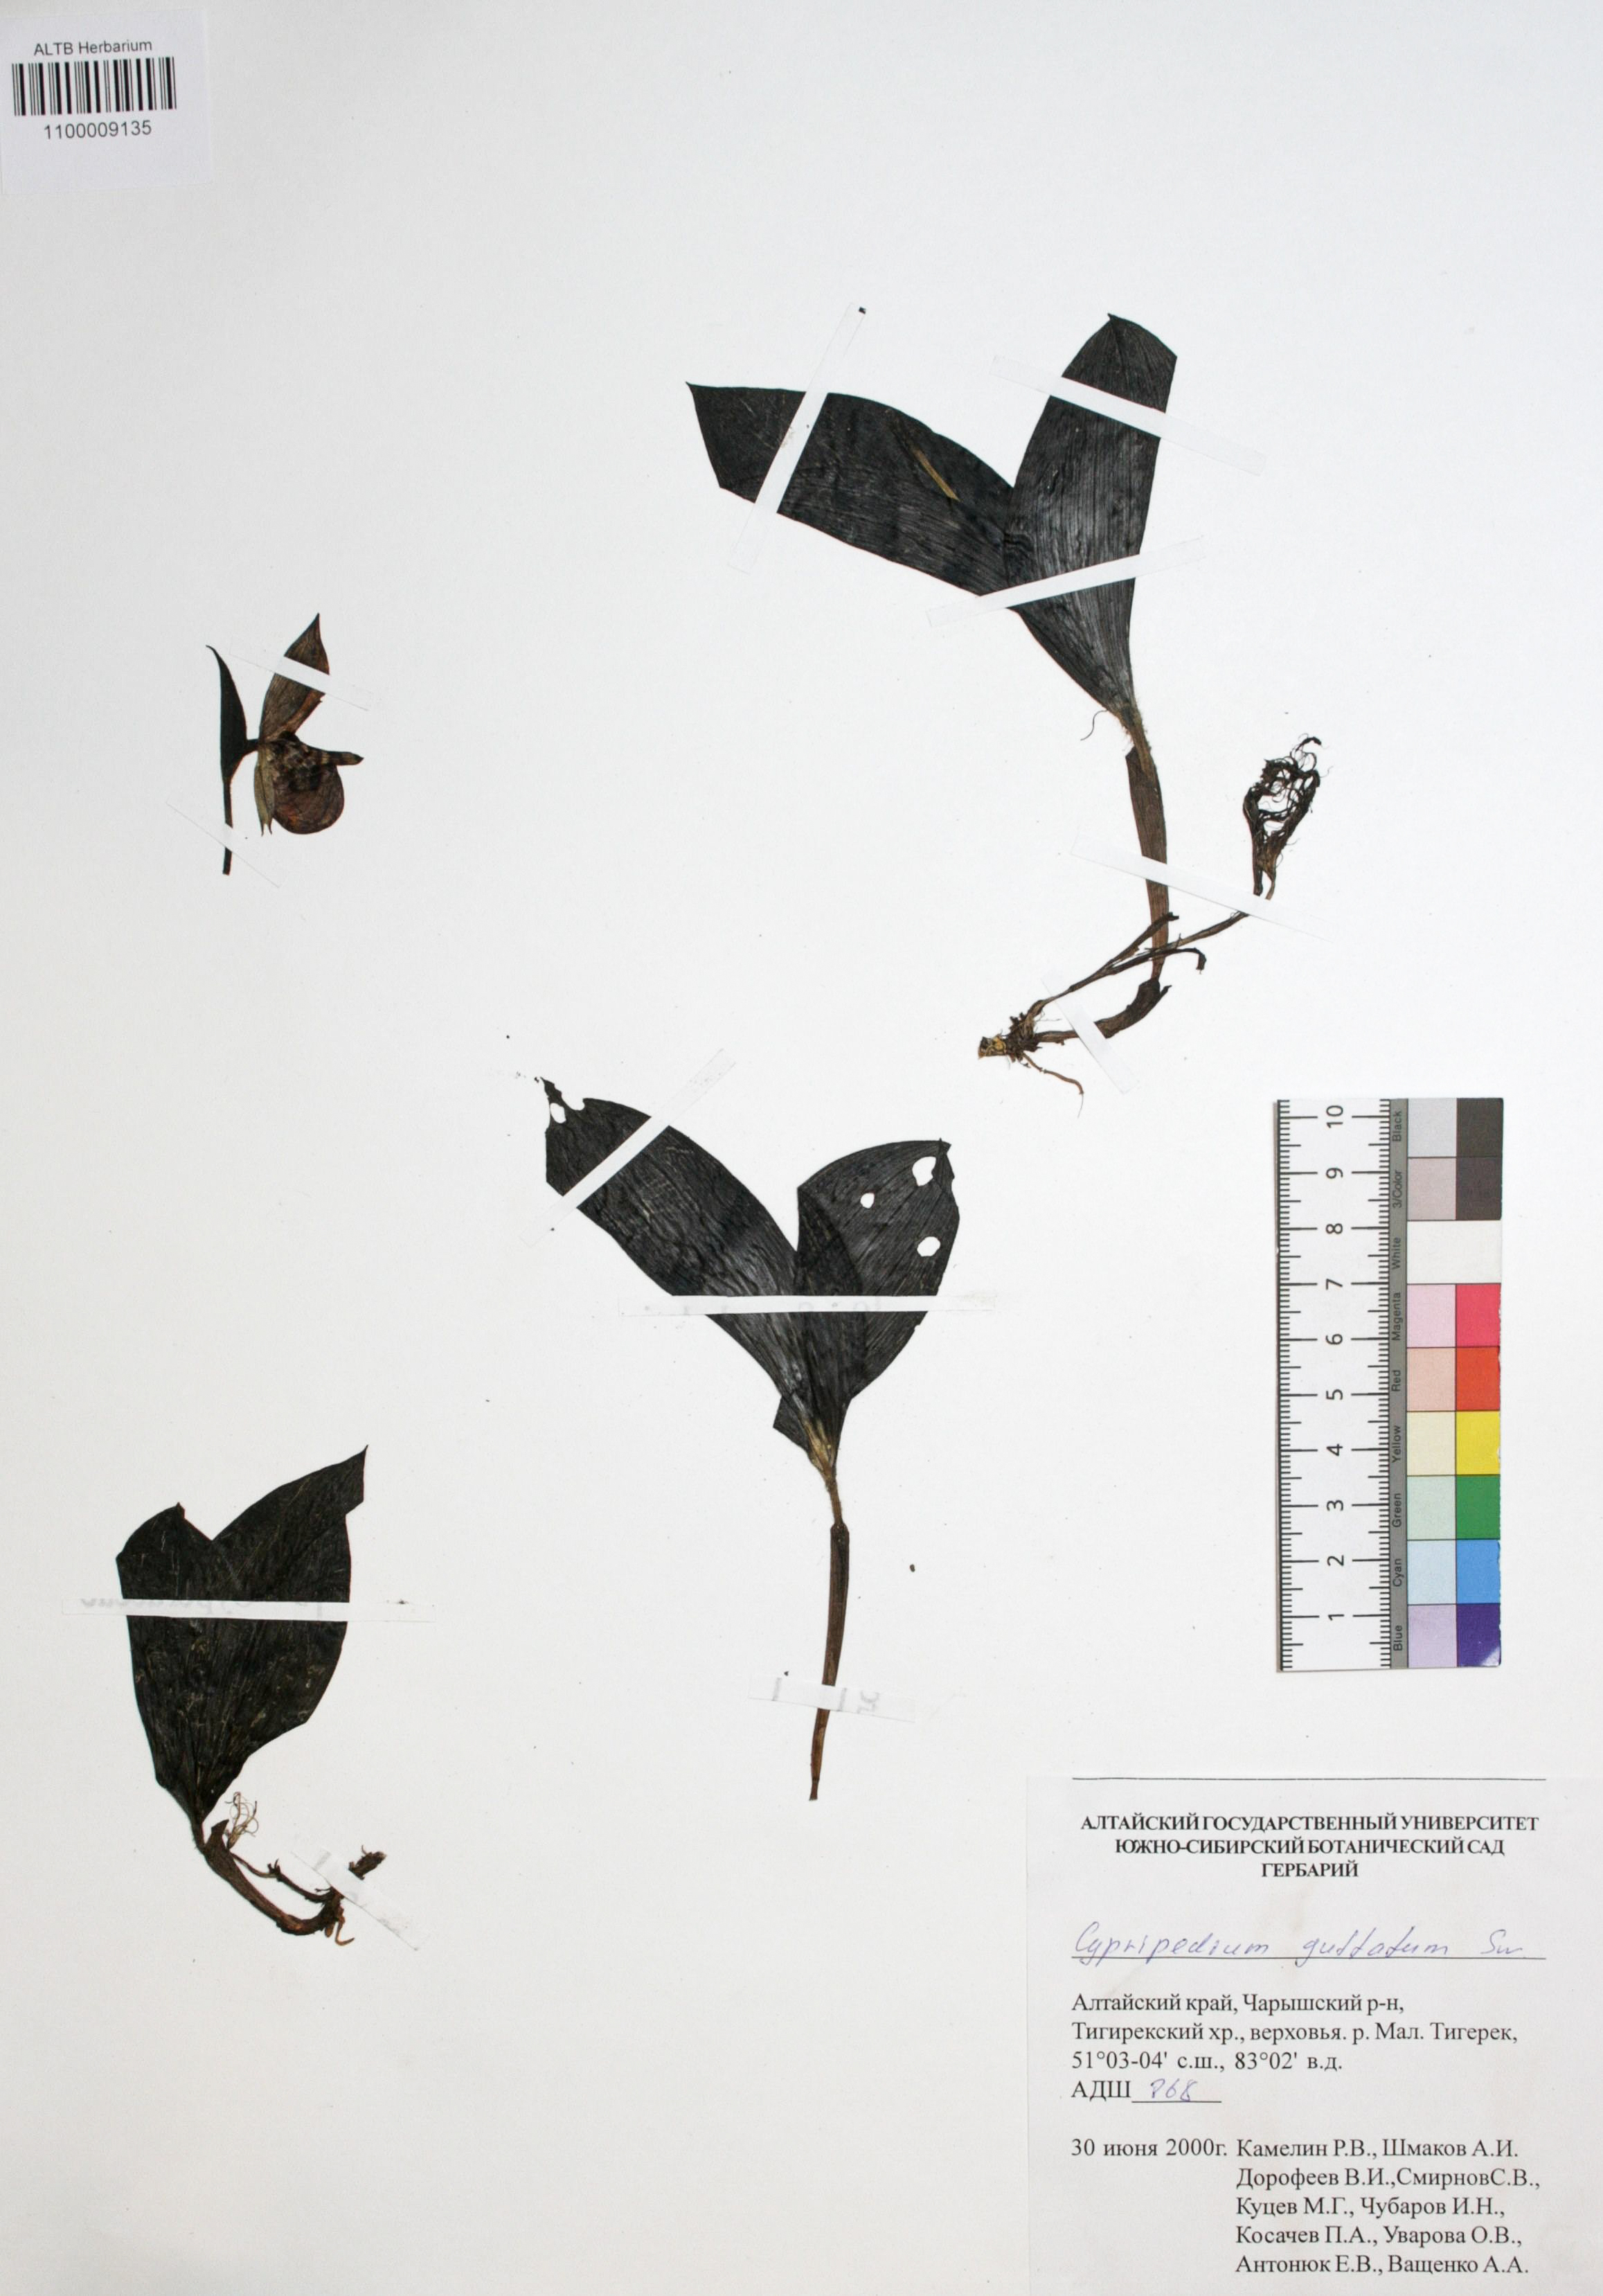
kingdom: Plantae
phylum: Tracheophyta
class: Liliopsida
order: Asparagales
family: Orchidaceae
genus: Cypripedium
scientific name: Cypripedium guttatum
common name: Pink lady slipper
